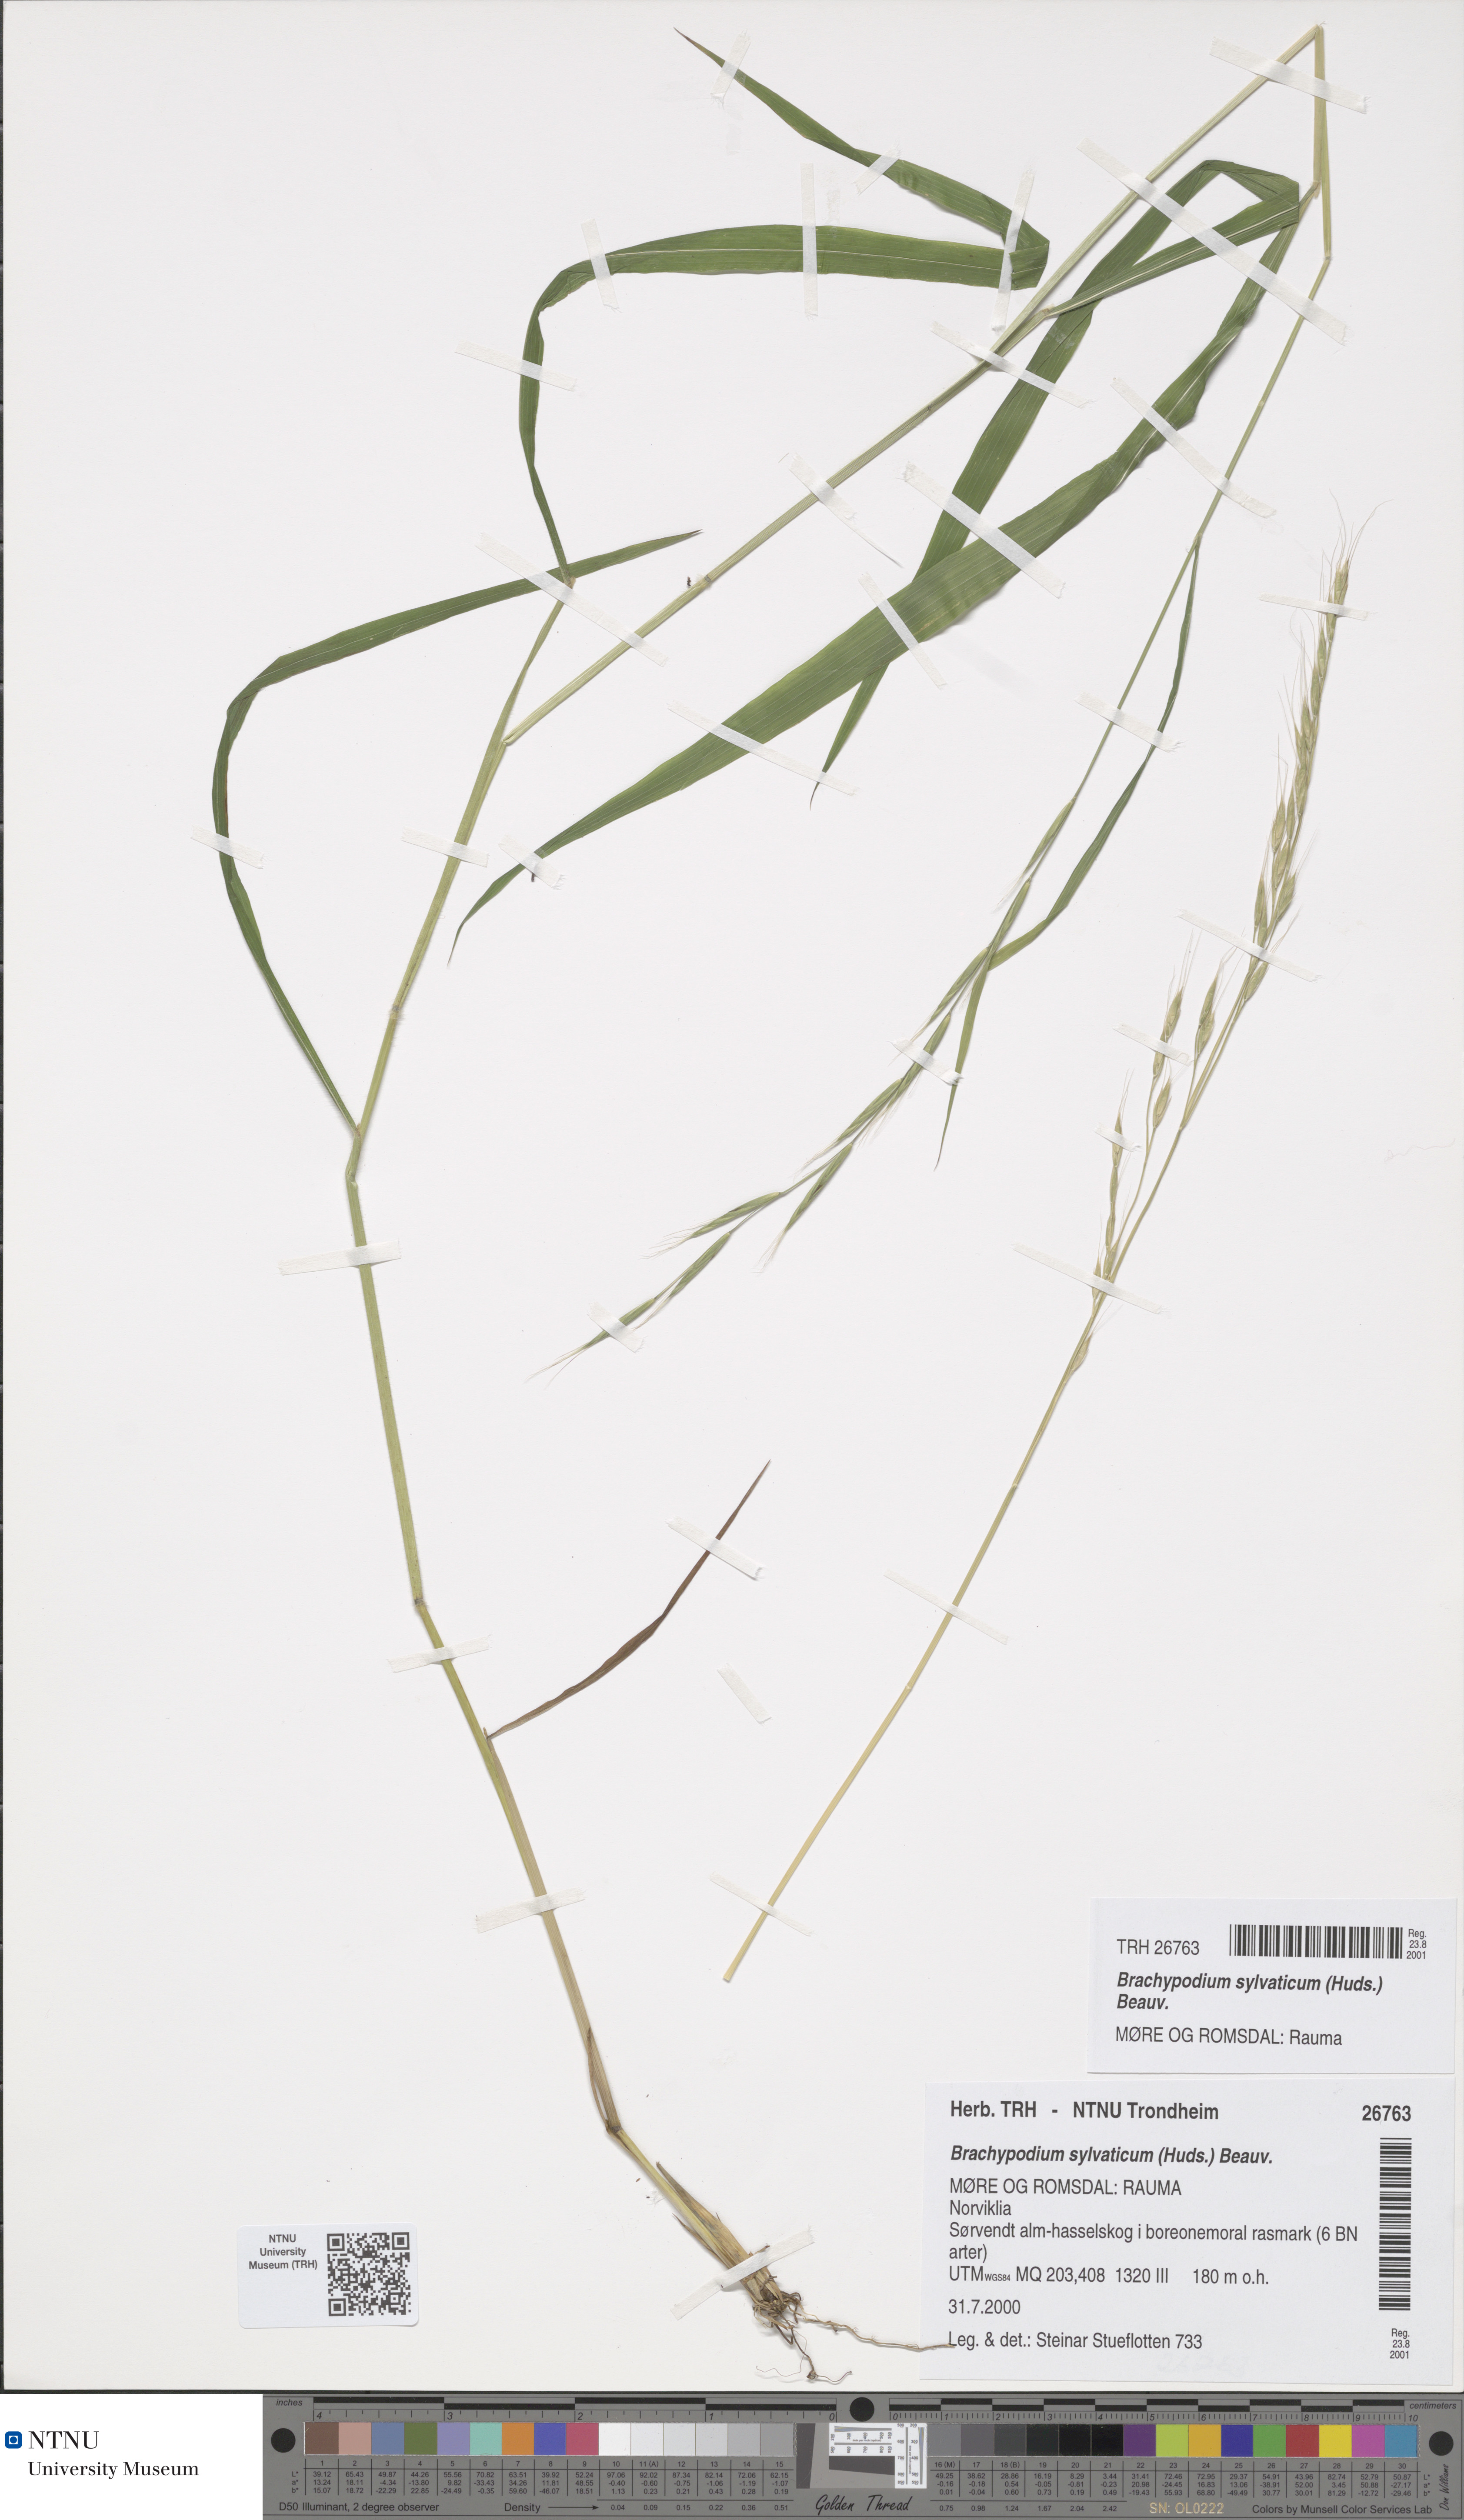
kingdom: Plantae
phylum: Tracheophyta
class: Liliopsida
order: Poales
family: Poaceae
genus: Brachypodium
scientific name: Brachypodium sylvaticum
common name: False-brome
